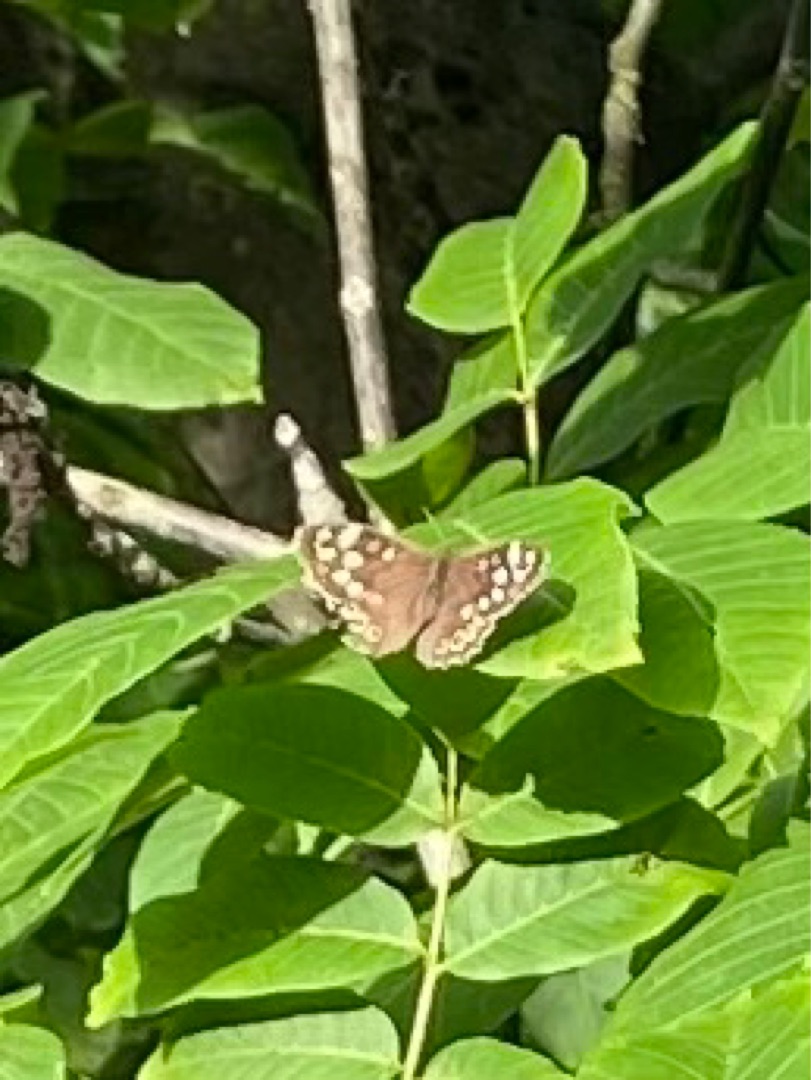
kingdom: Animalia
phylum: Arthropoda
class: Insecta
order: Lepidoptera
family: Nymphalidae
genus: Pararge
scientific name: Pararge aegeria
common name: Skovrandøje
